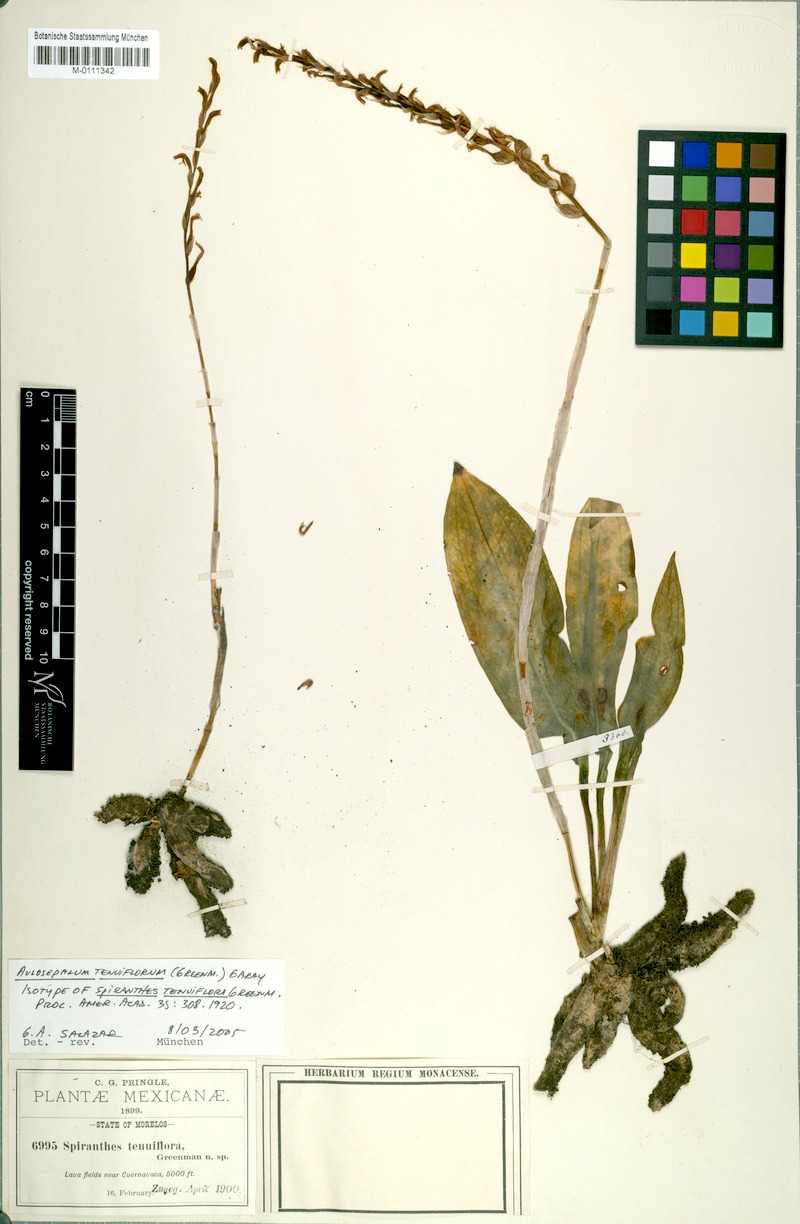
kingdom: Plantae
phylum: Tracheophyta
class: Liliopsida
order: Asparagales
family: Orchidaceae
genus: Aulosepalum
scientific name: Aulosepalum tenuiflorum
